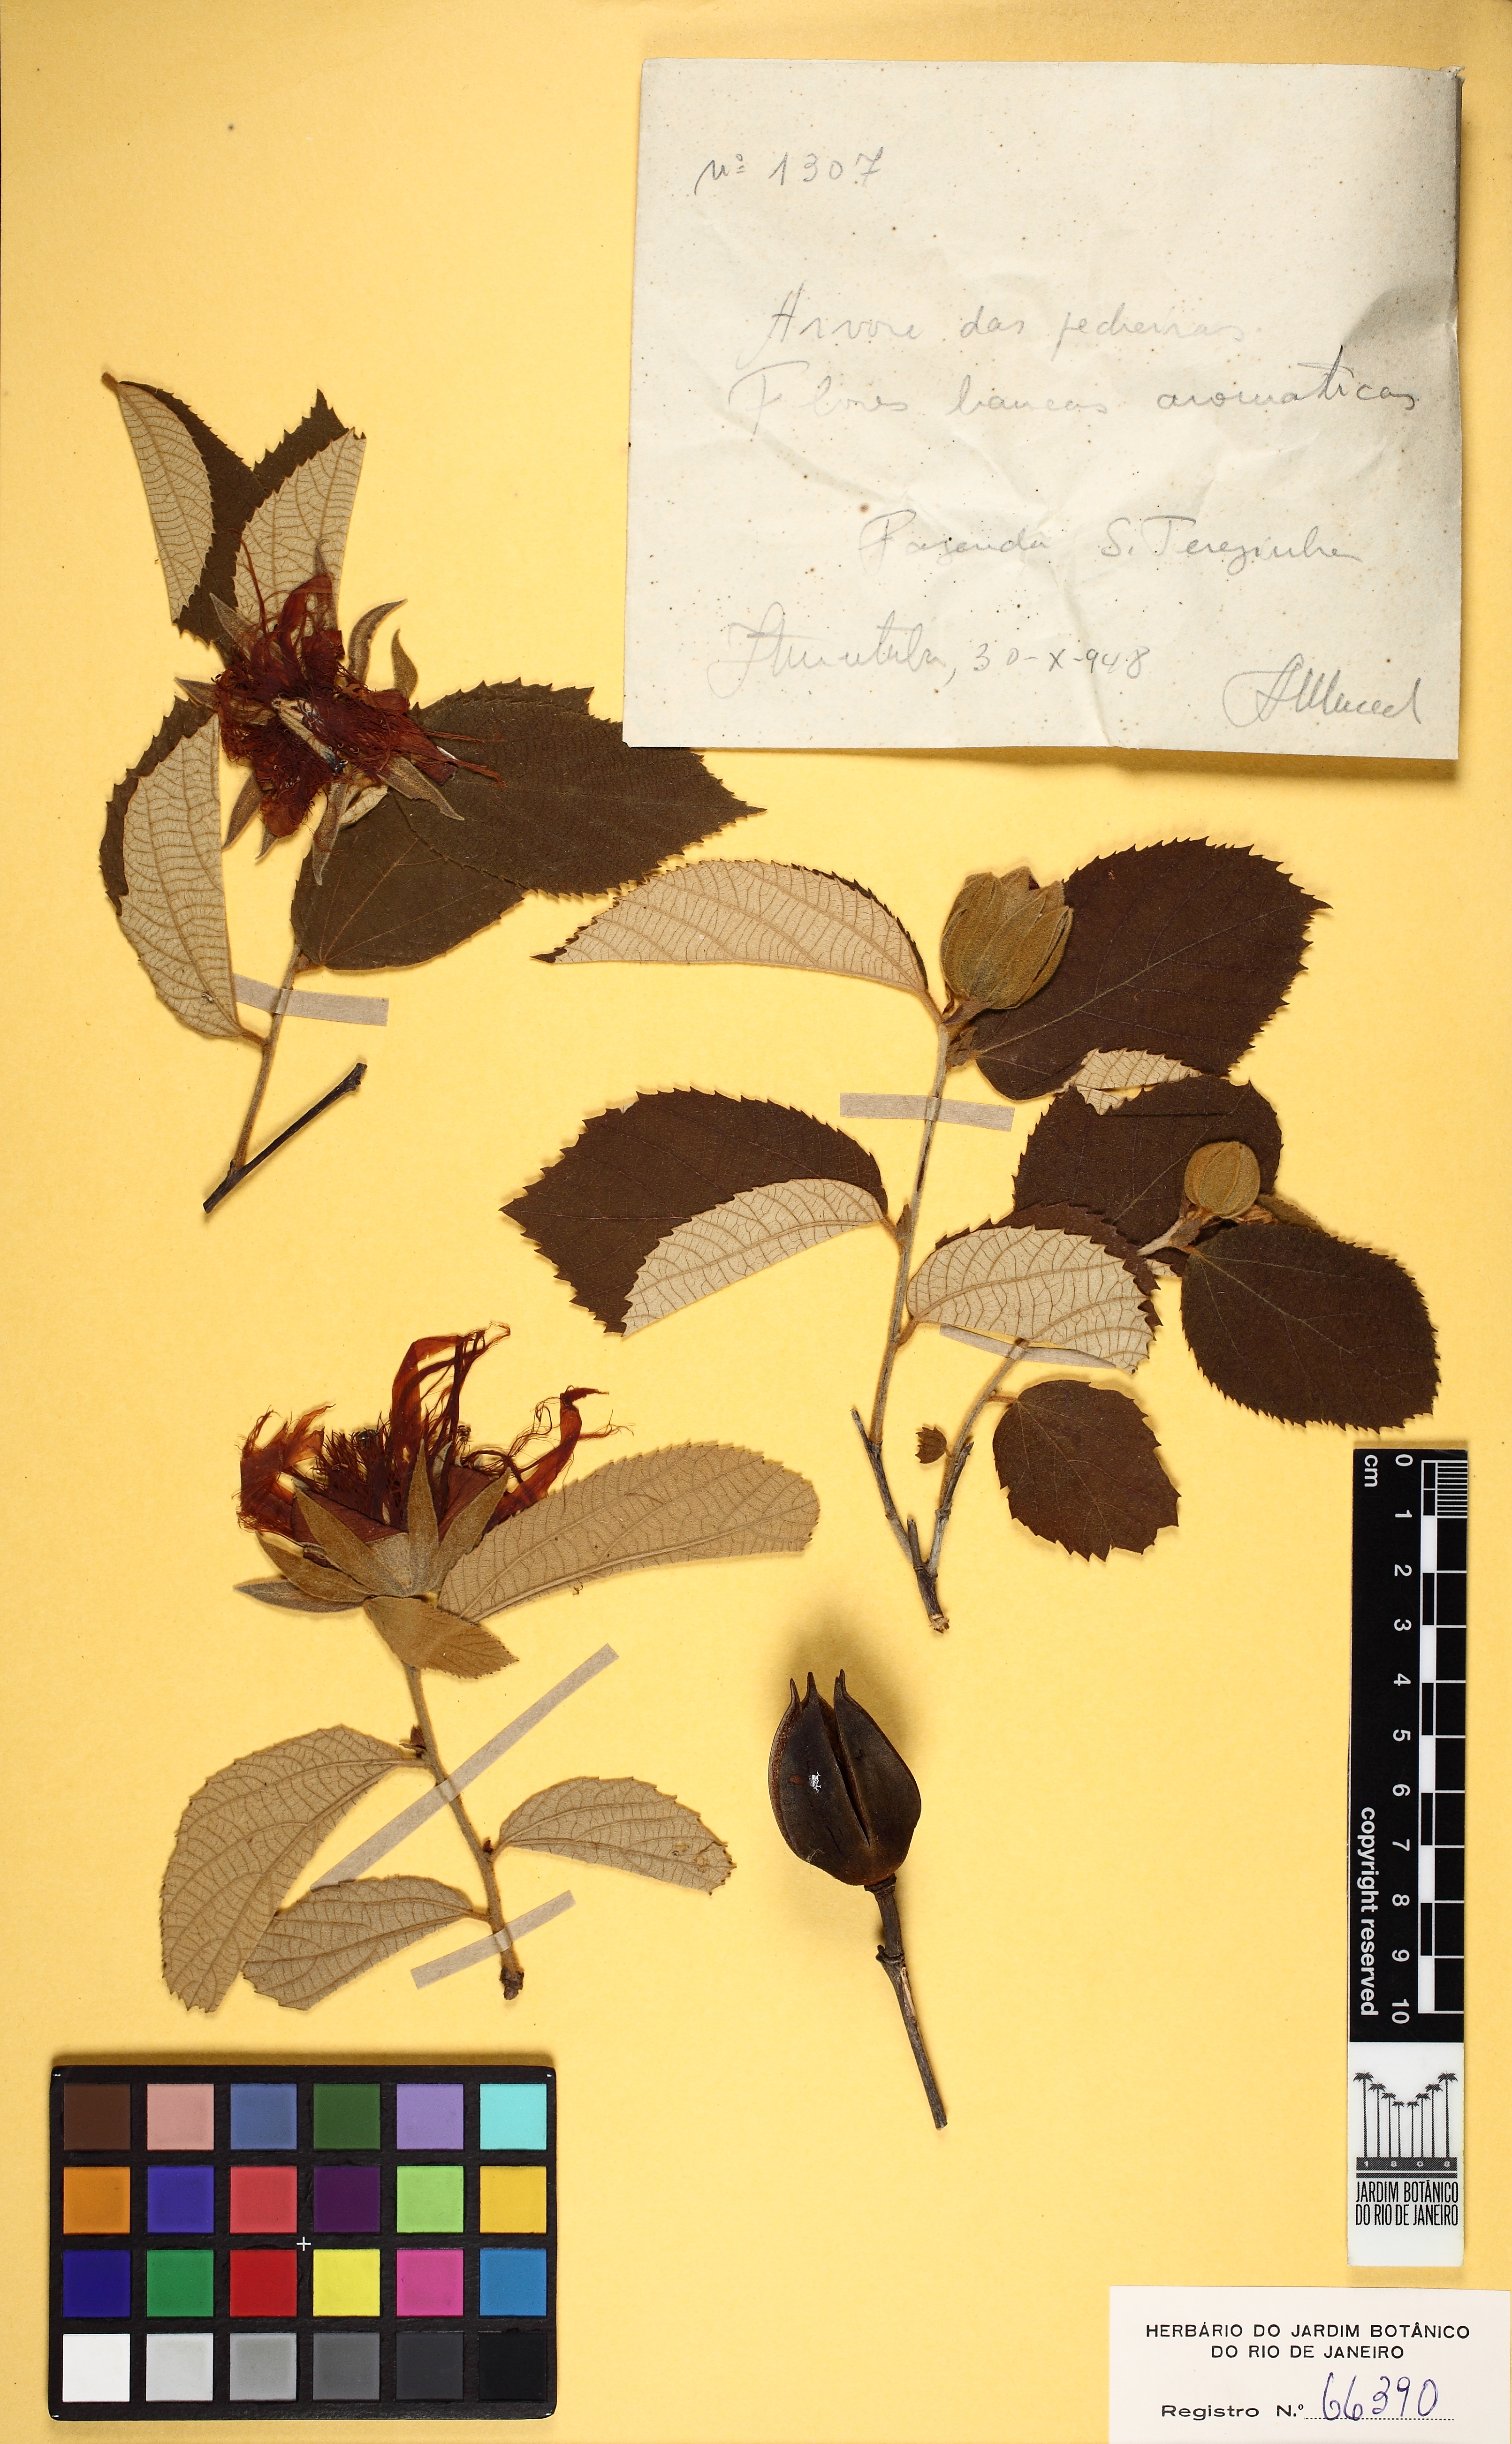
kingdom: Plantae
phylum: Tracheophyta
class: Magnoliopsida
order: Malvales
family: Malvaceae
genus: Luehea
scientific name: Luehea candida
